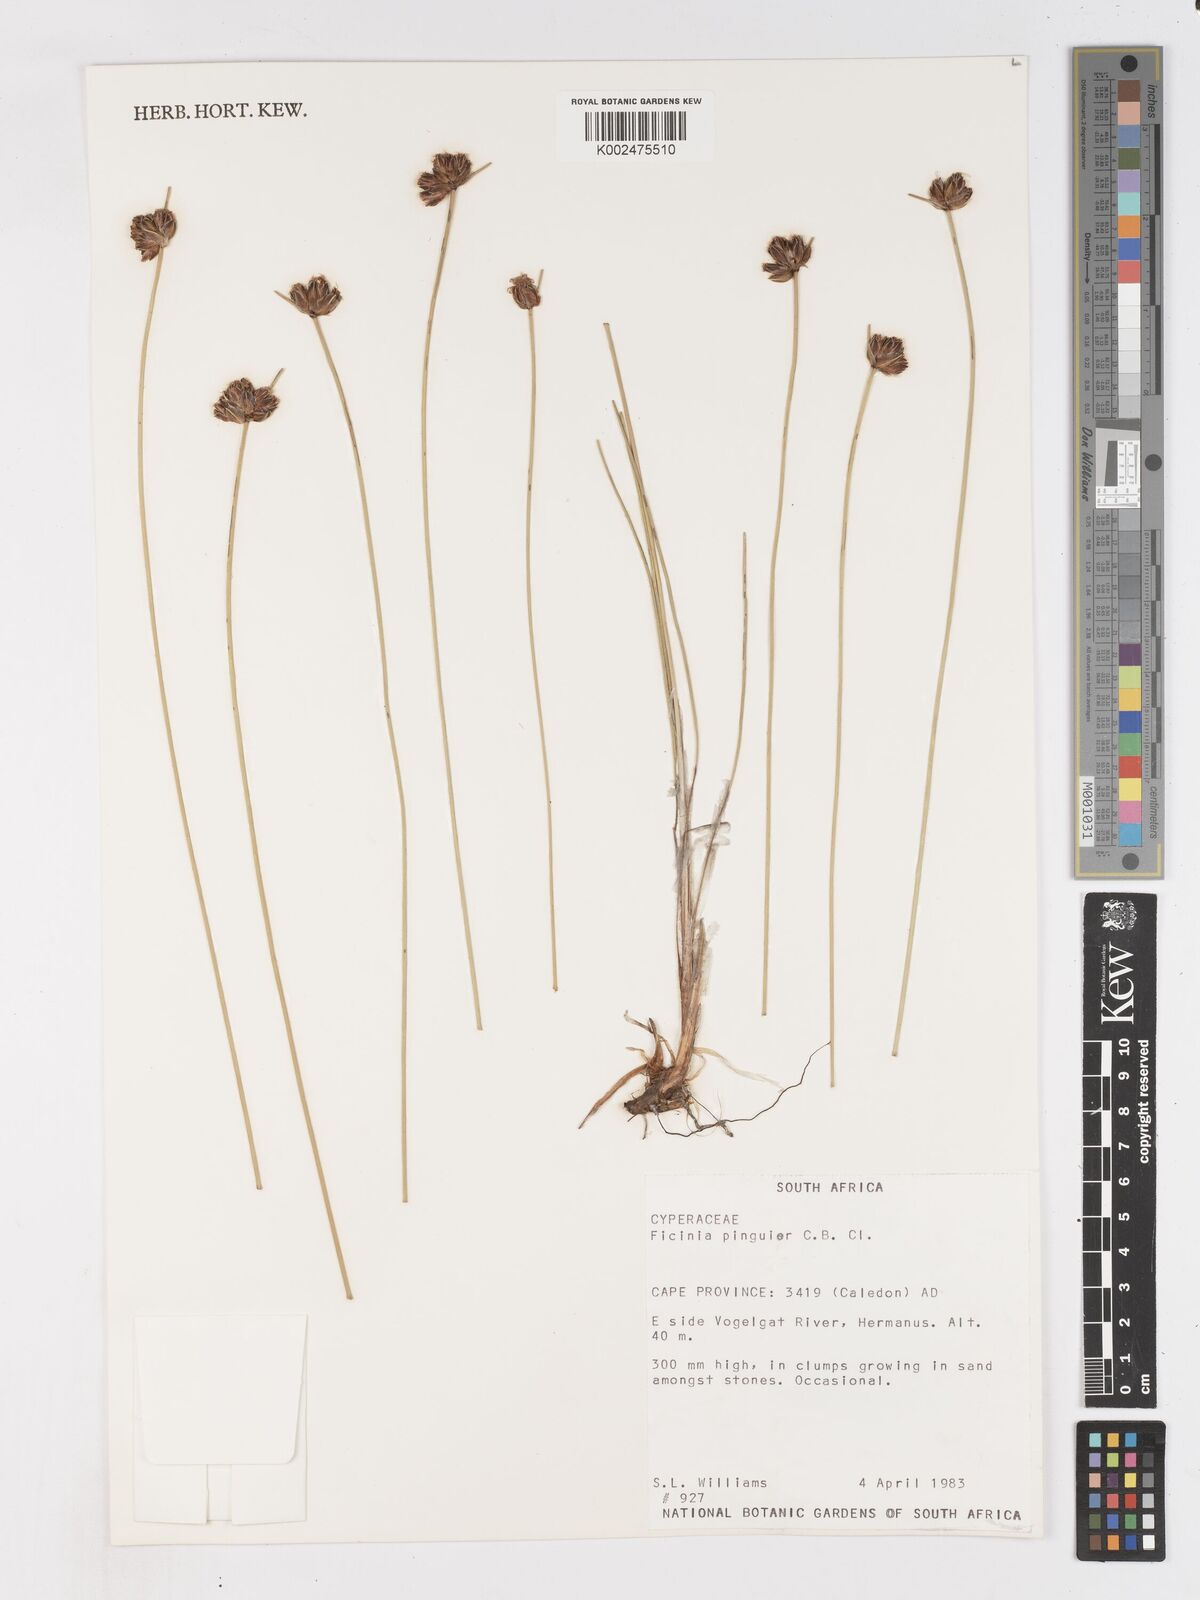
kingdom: Plantae
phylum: Tracheophyta
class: Liliopsida
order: Poales
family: Cyperaceae
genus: Ficinia
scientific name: Ficinia pinguior
